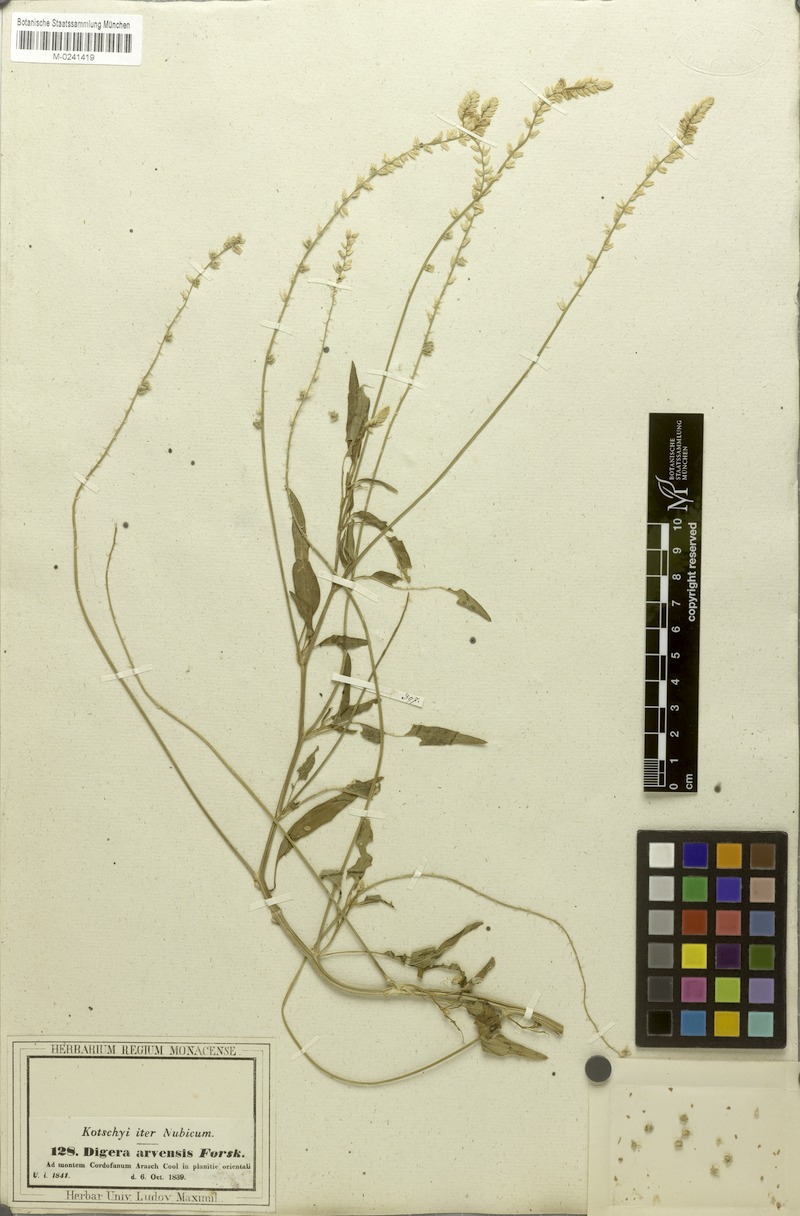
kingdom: Plantae
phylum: Tracheophyta
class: Magnoliopsida
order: Caryophyllales
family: Amaranthaceae
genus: Digera
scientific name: Digera muricata
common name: False amaranth
